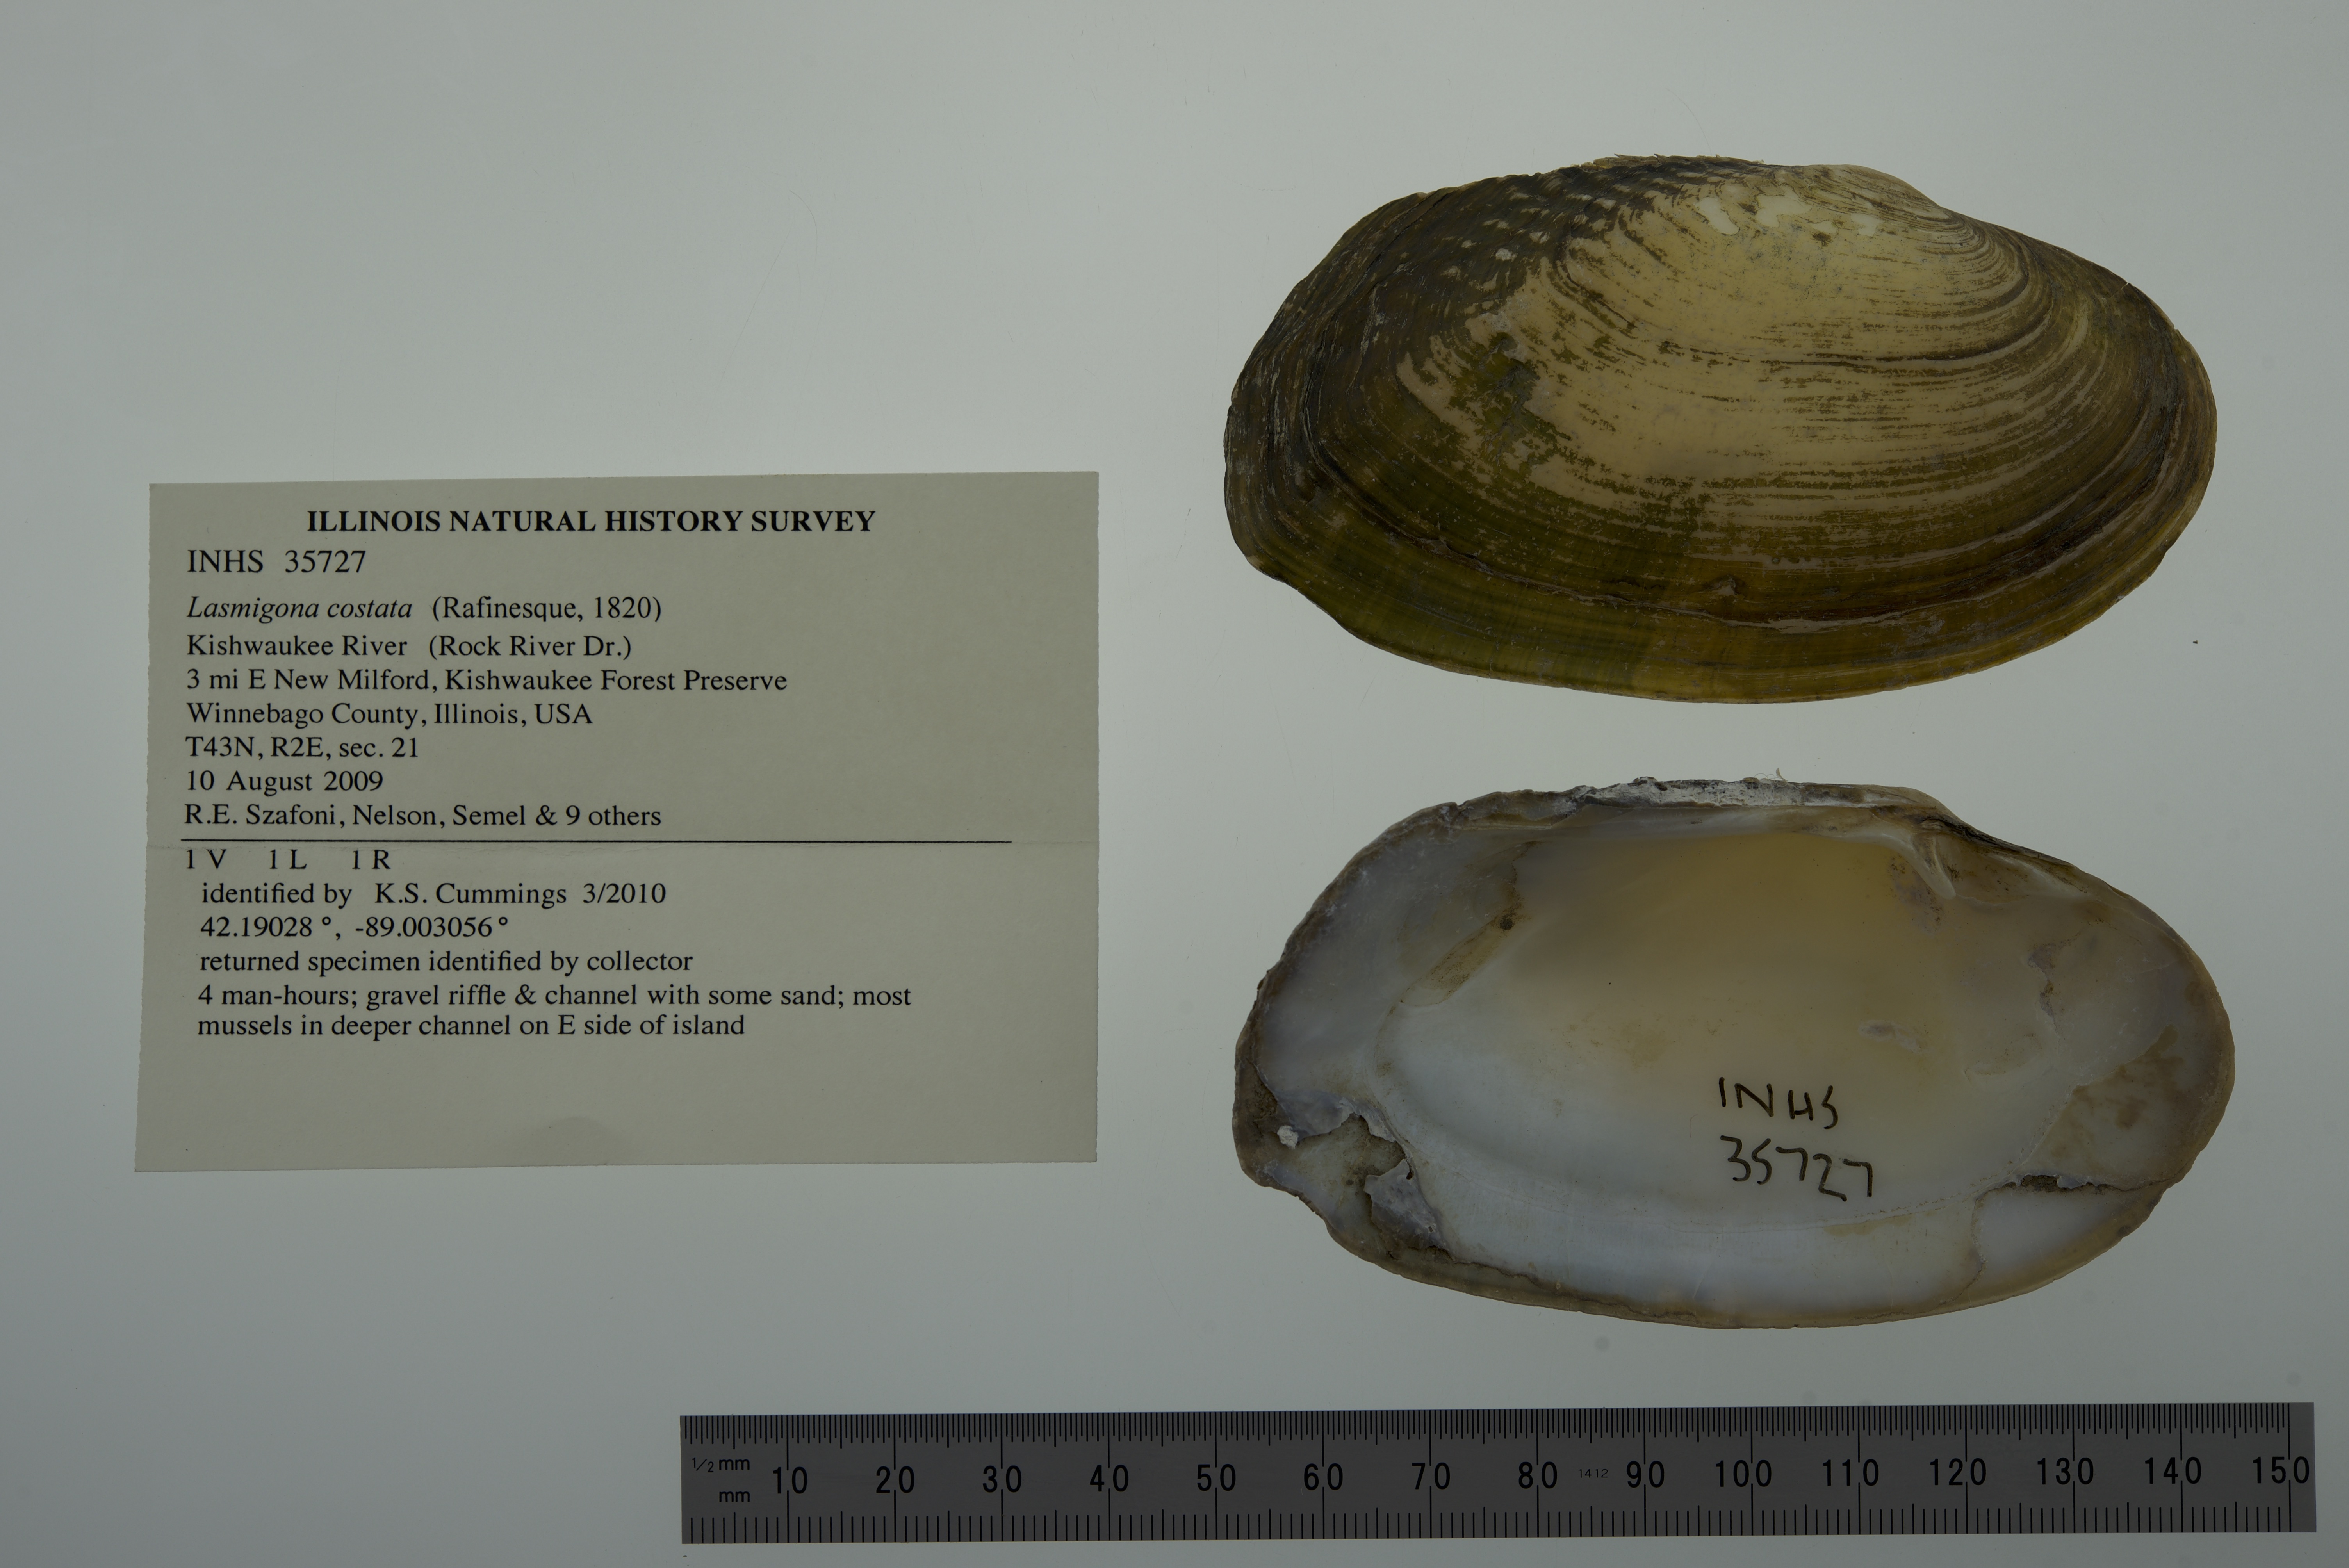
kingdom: Animalia
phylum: Mollusca
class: Bivalvia
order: Unionida
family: Unionidae
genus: Lasmigona
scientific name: Lasmigona costata
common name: Flutedshell
